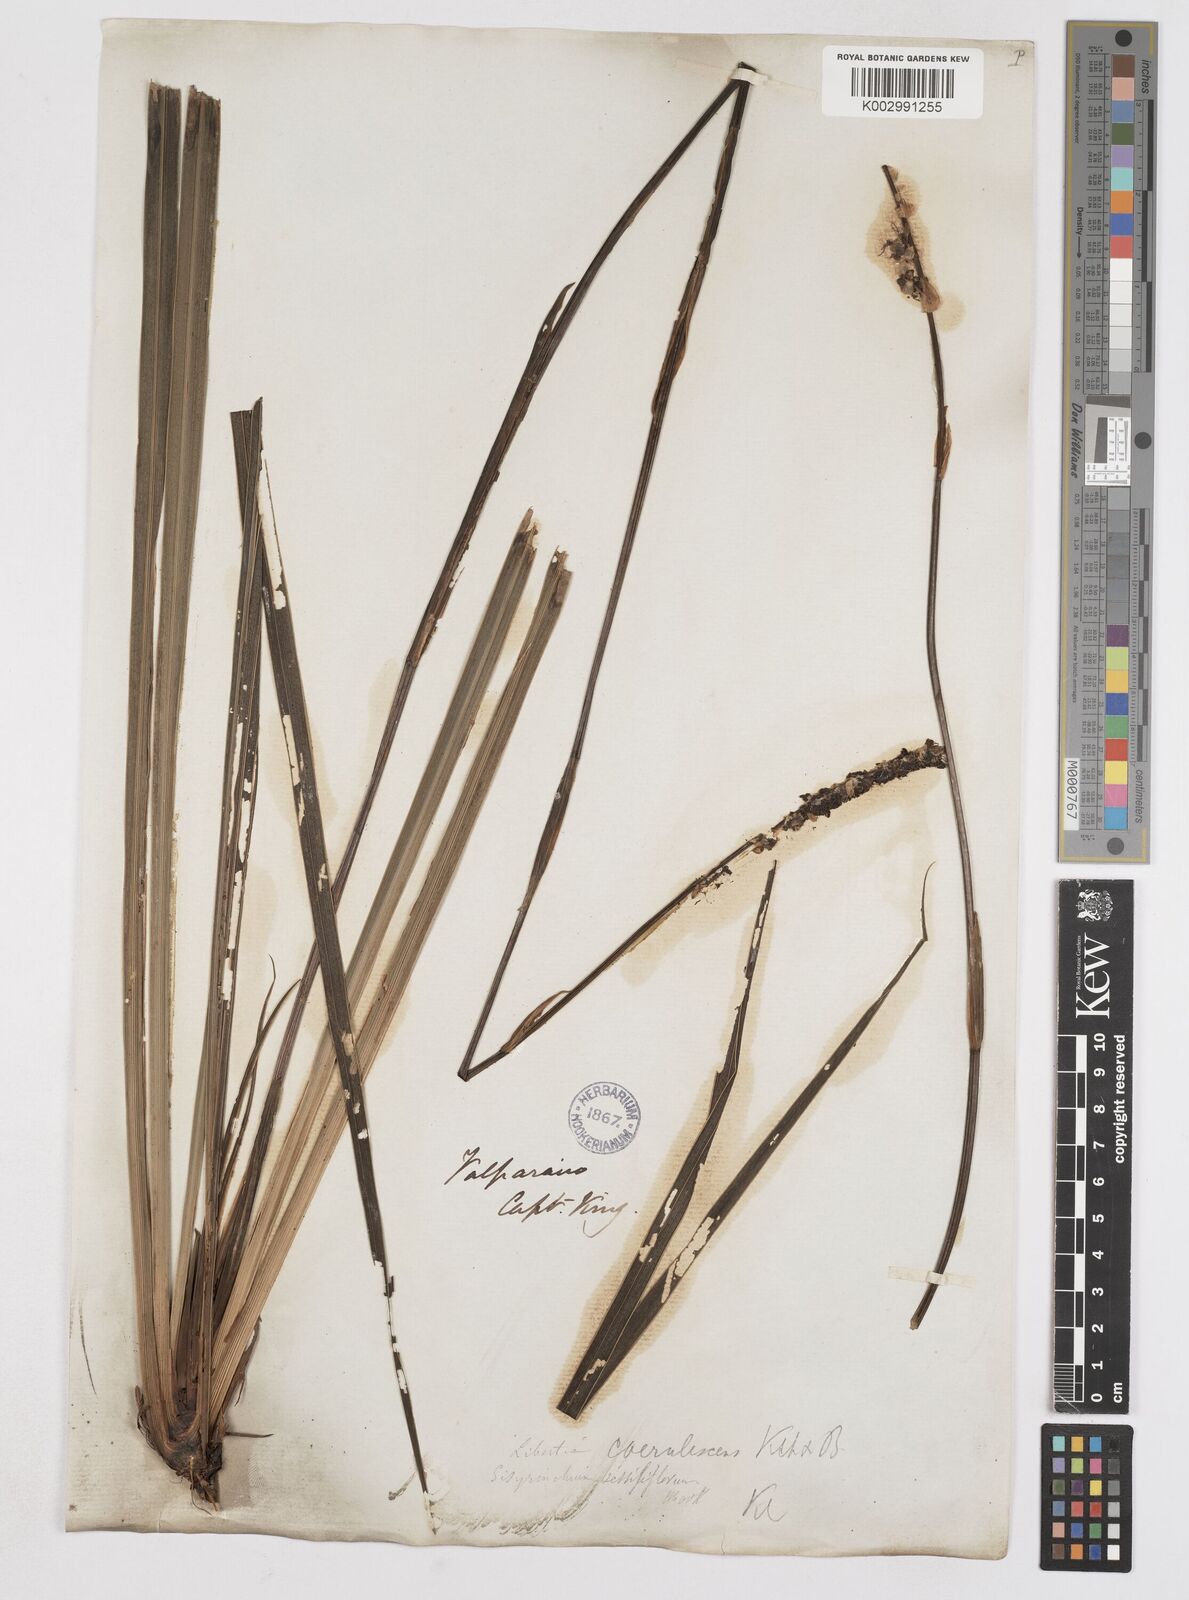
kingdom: Plantae
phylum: Tracheophyta
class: Liliopsida
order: Asparagales
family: Iridaceae
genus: Libertia
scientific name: Libertia sessiliflora
